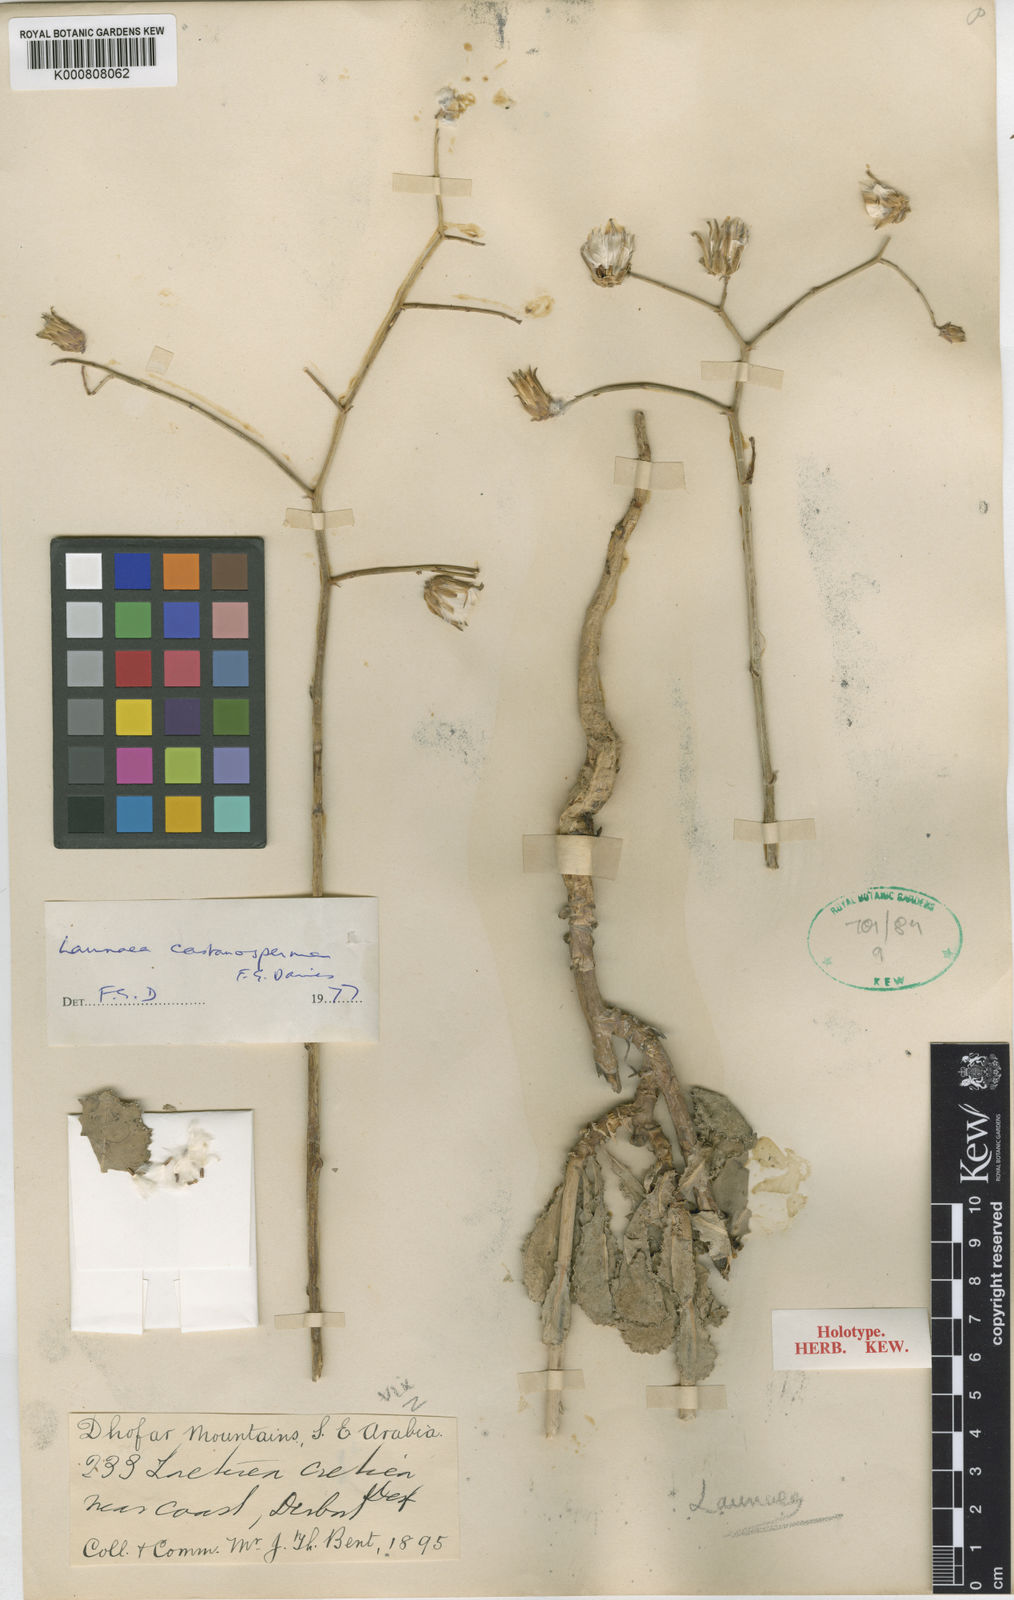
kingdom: Plantae
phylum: Tracheophyta
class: Magnoliopsida
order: Asterales
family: Asteraceae
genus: Launaea
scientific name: Launaea castanosperma
